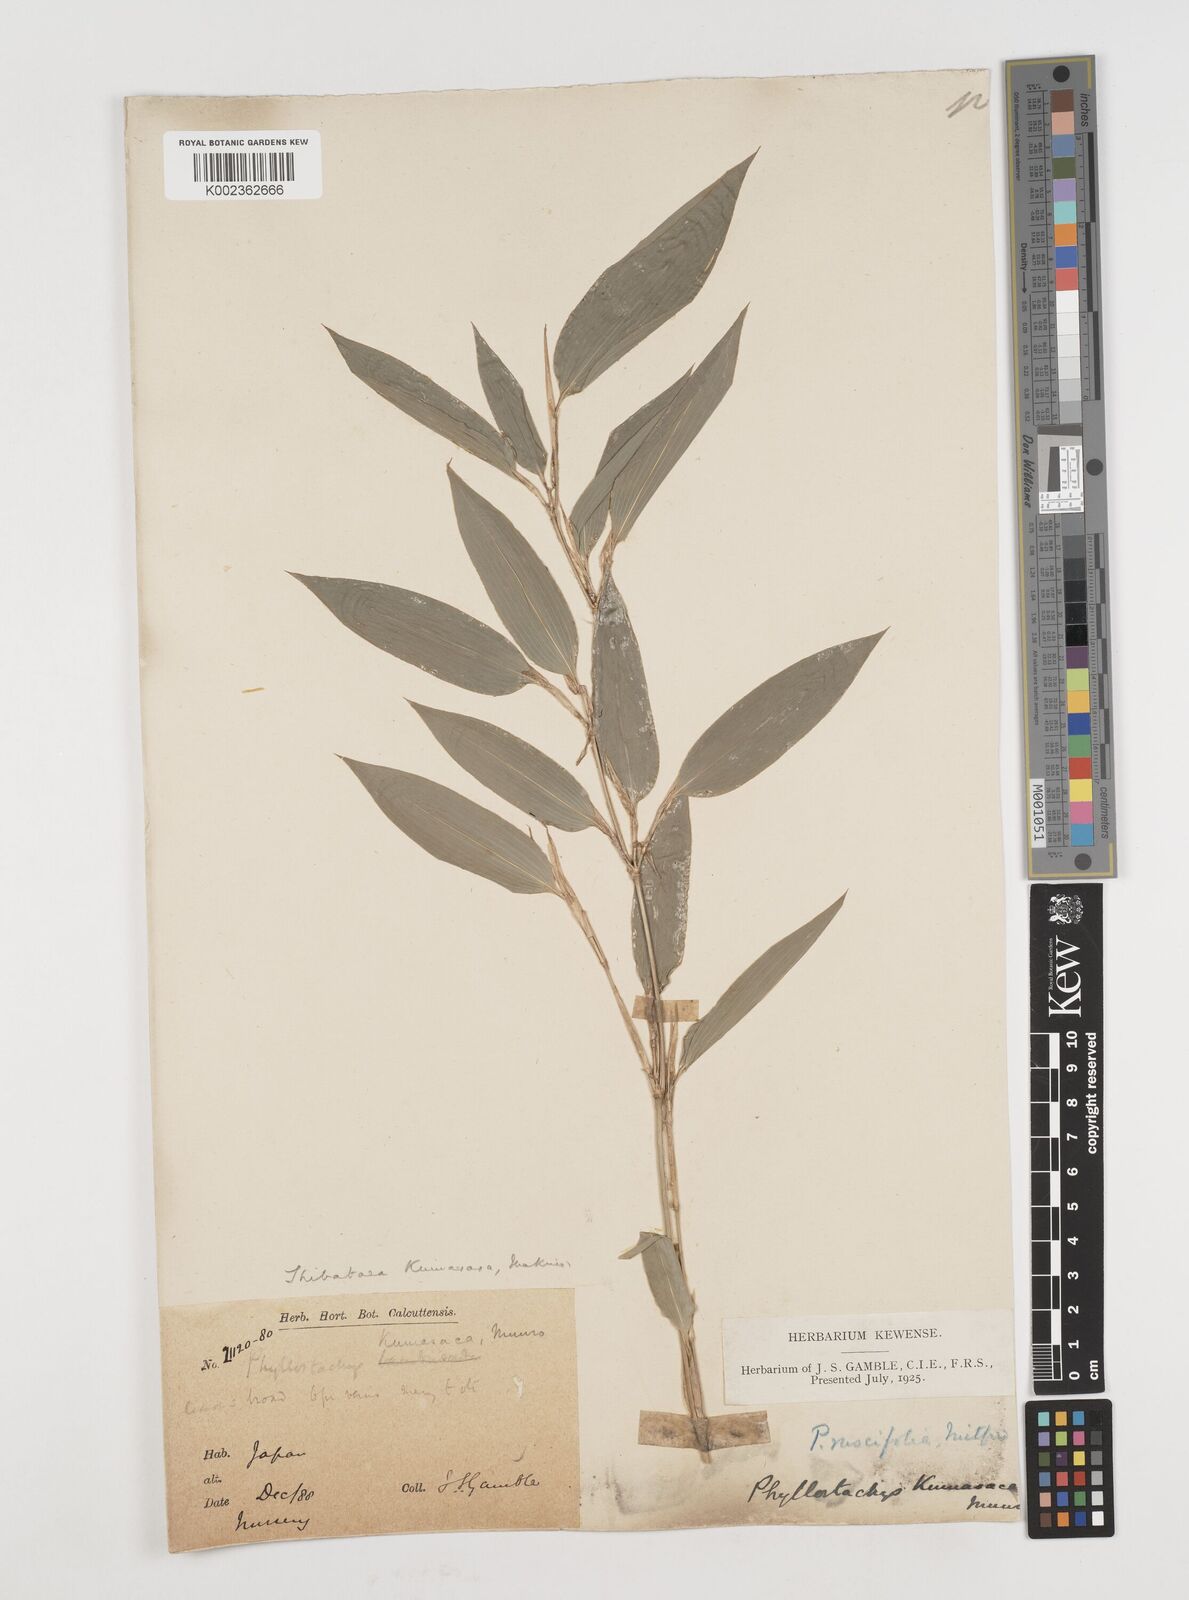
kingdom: Plantae
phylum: Tracheophyta
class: Liliopsida
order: Poales
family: Poaceae
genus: Shibataea
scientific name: Shibataea kumasasa
